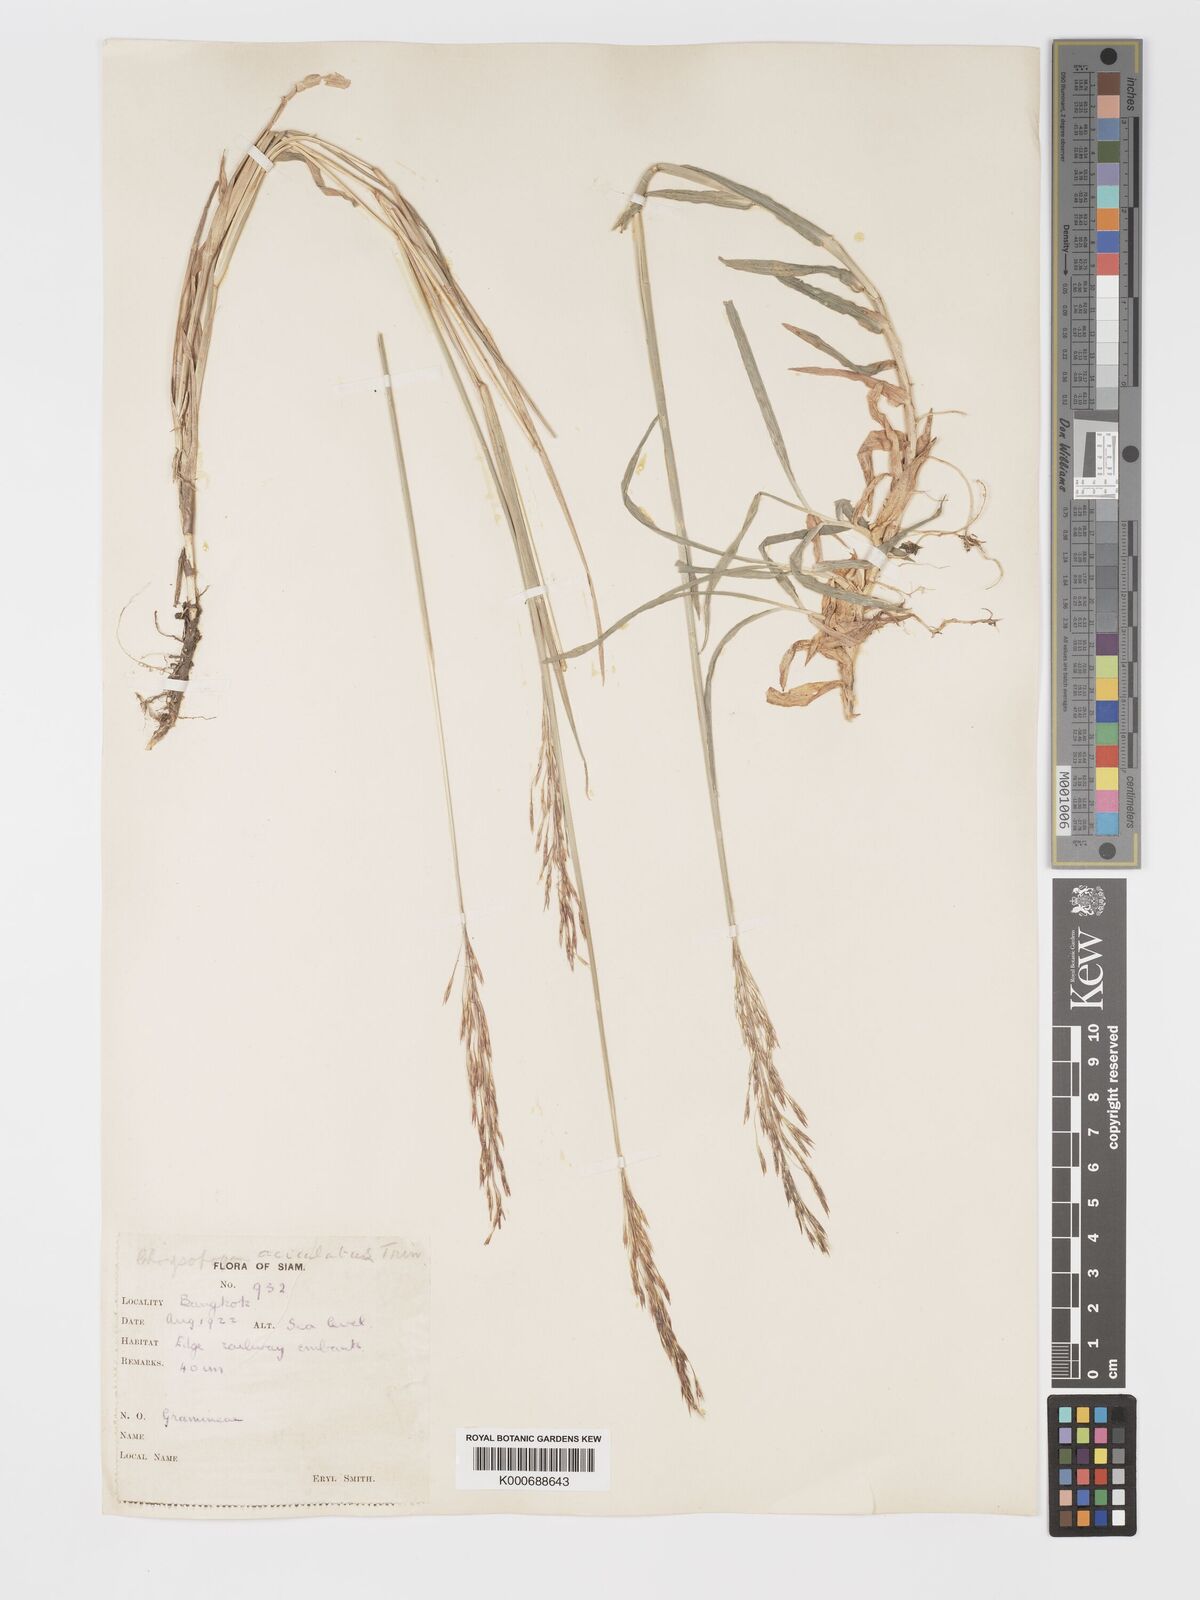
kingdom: Plantae
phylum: Tracheophyta
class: Liliopsida
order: Poales
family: Poaceae
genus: Chrysopogon
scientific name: Chrysopogon aciculatus
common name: Pilipiliula
